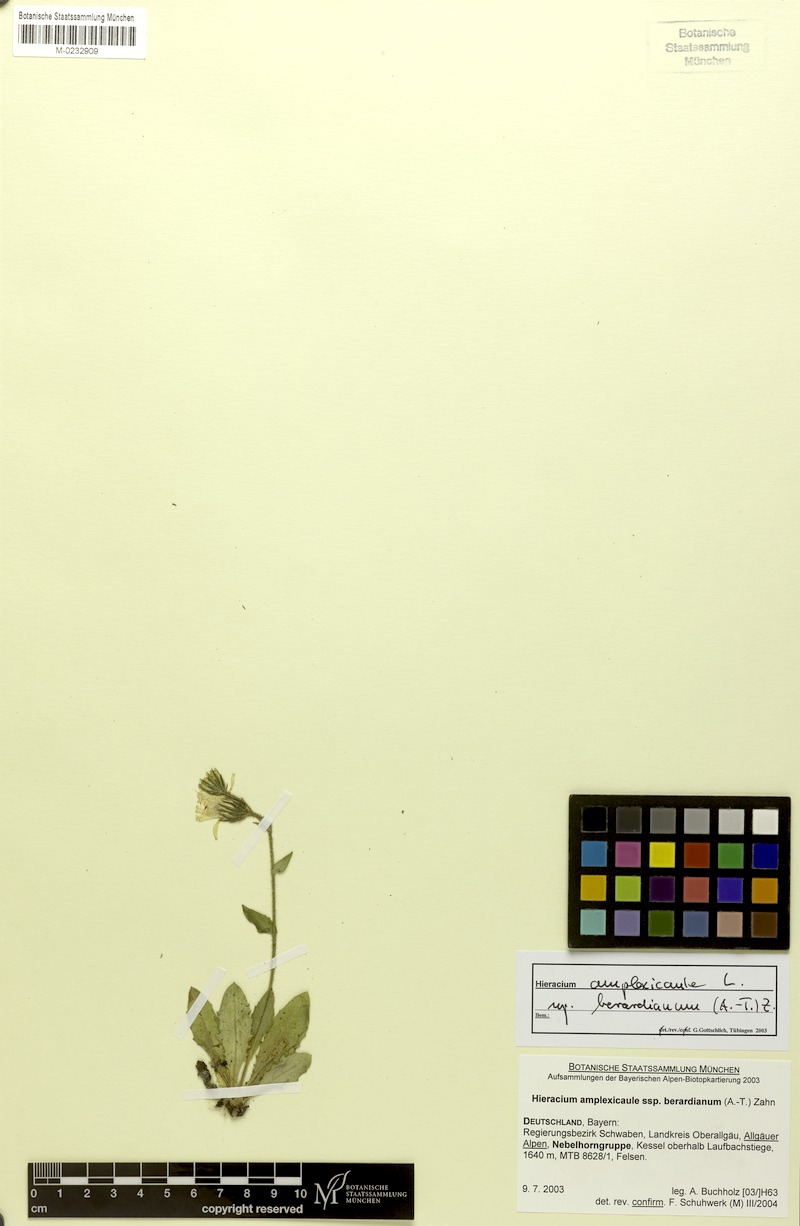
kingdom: Plantae
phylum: Tracheophyta
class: Magnoliopsida
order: Asterales
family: Asteraceae
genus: Hieracium
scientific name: Hieracium amplexicaule
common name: Sticky hawkweed
